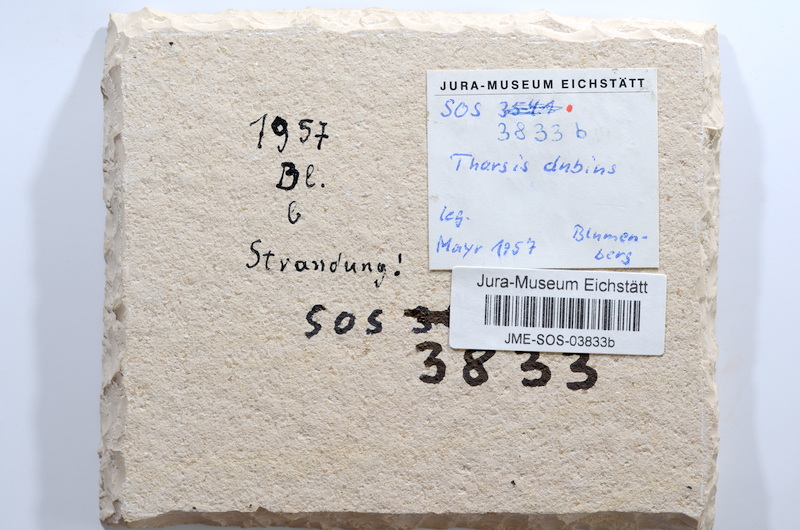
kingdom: Animalia
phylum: Chordata
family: Ascalaboidae
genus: Tharsis
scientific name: Tharsis dubius
